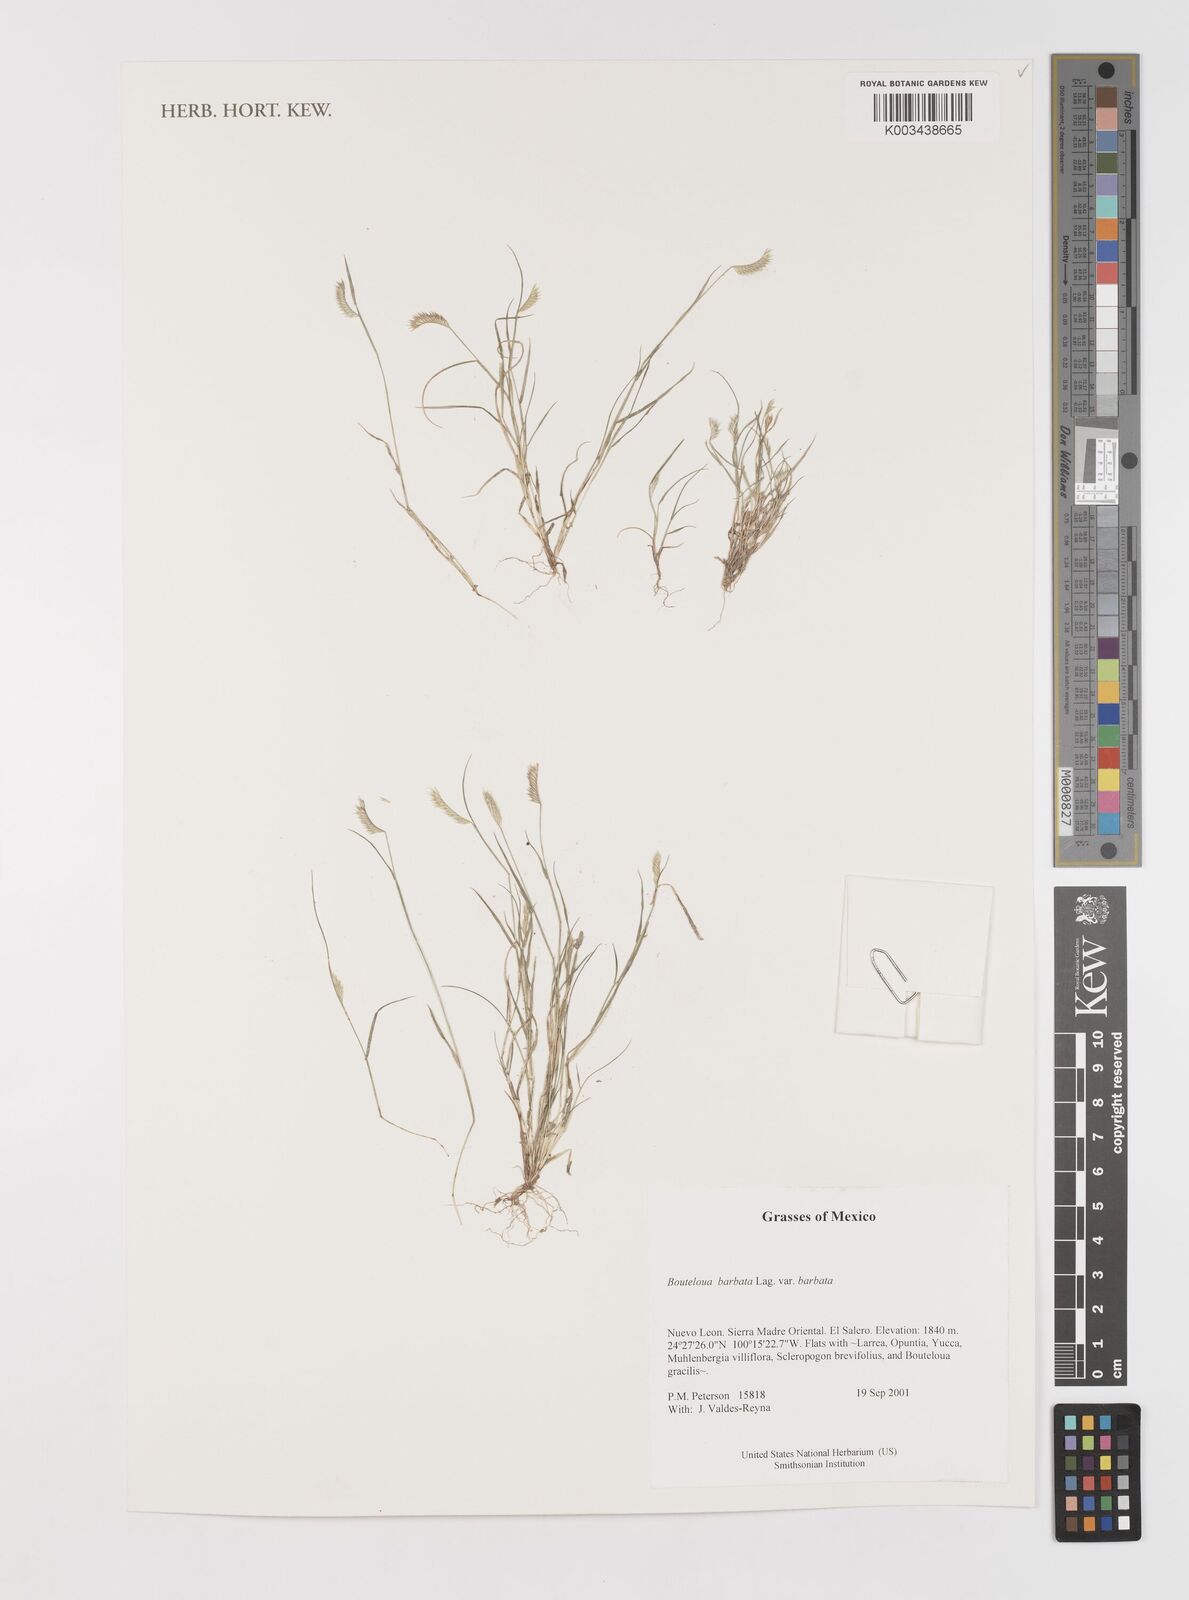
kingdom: Plantae
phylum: Tracheophyta
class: Liliopsida
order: Poales
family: Poaceae
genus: Bouteloua
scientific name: Bouteloua
